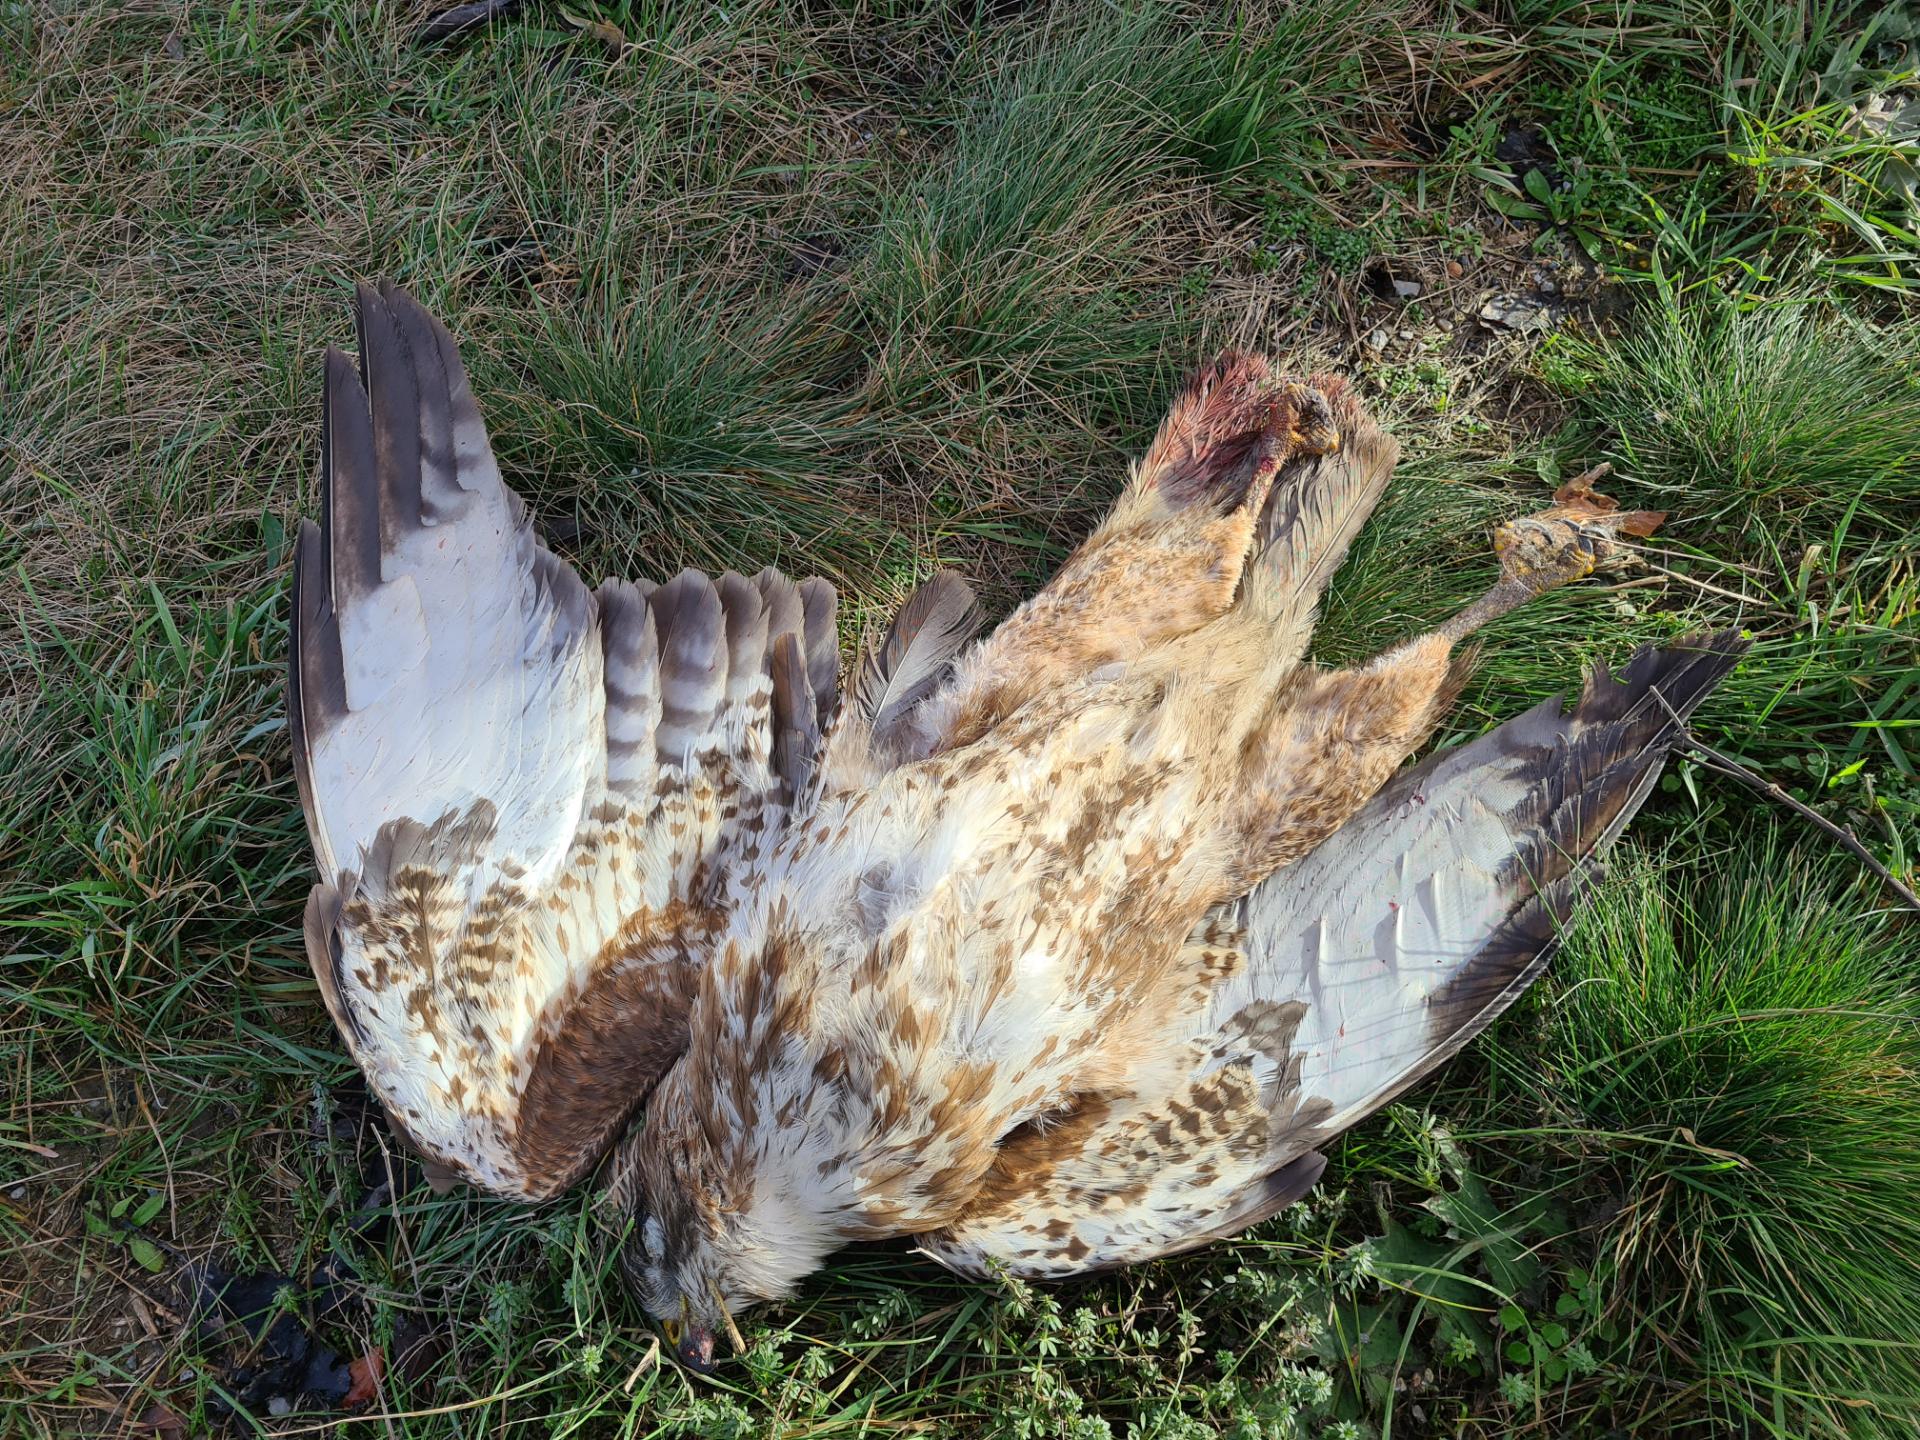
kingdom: Animalia
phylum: Chordata
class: Aves
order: Accipitriformes
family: Accipitridae
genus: Buteo
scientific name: Buteo buteo
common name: Common buzzard
